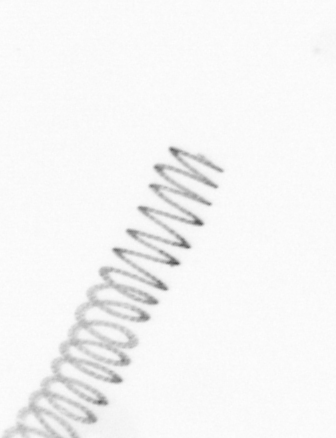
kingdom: Chromista
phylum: Ochrophyta
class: Bacillariophyceae
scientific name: Bacillariophyceae
